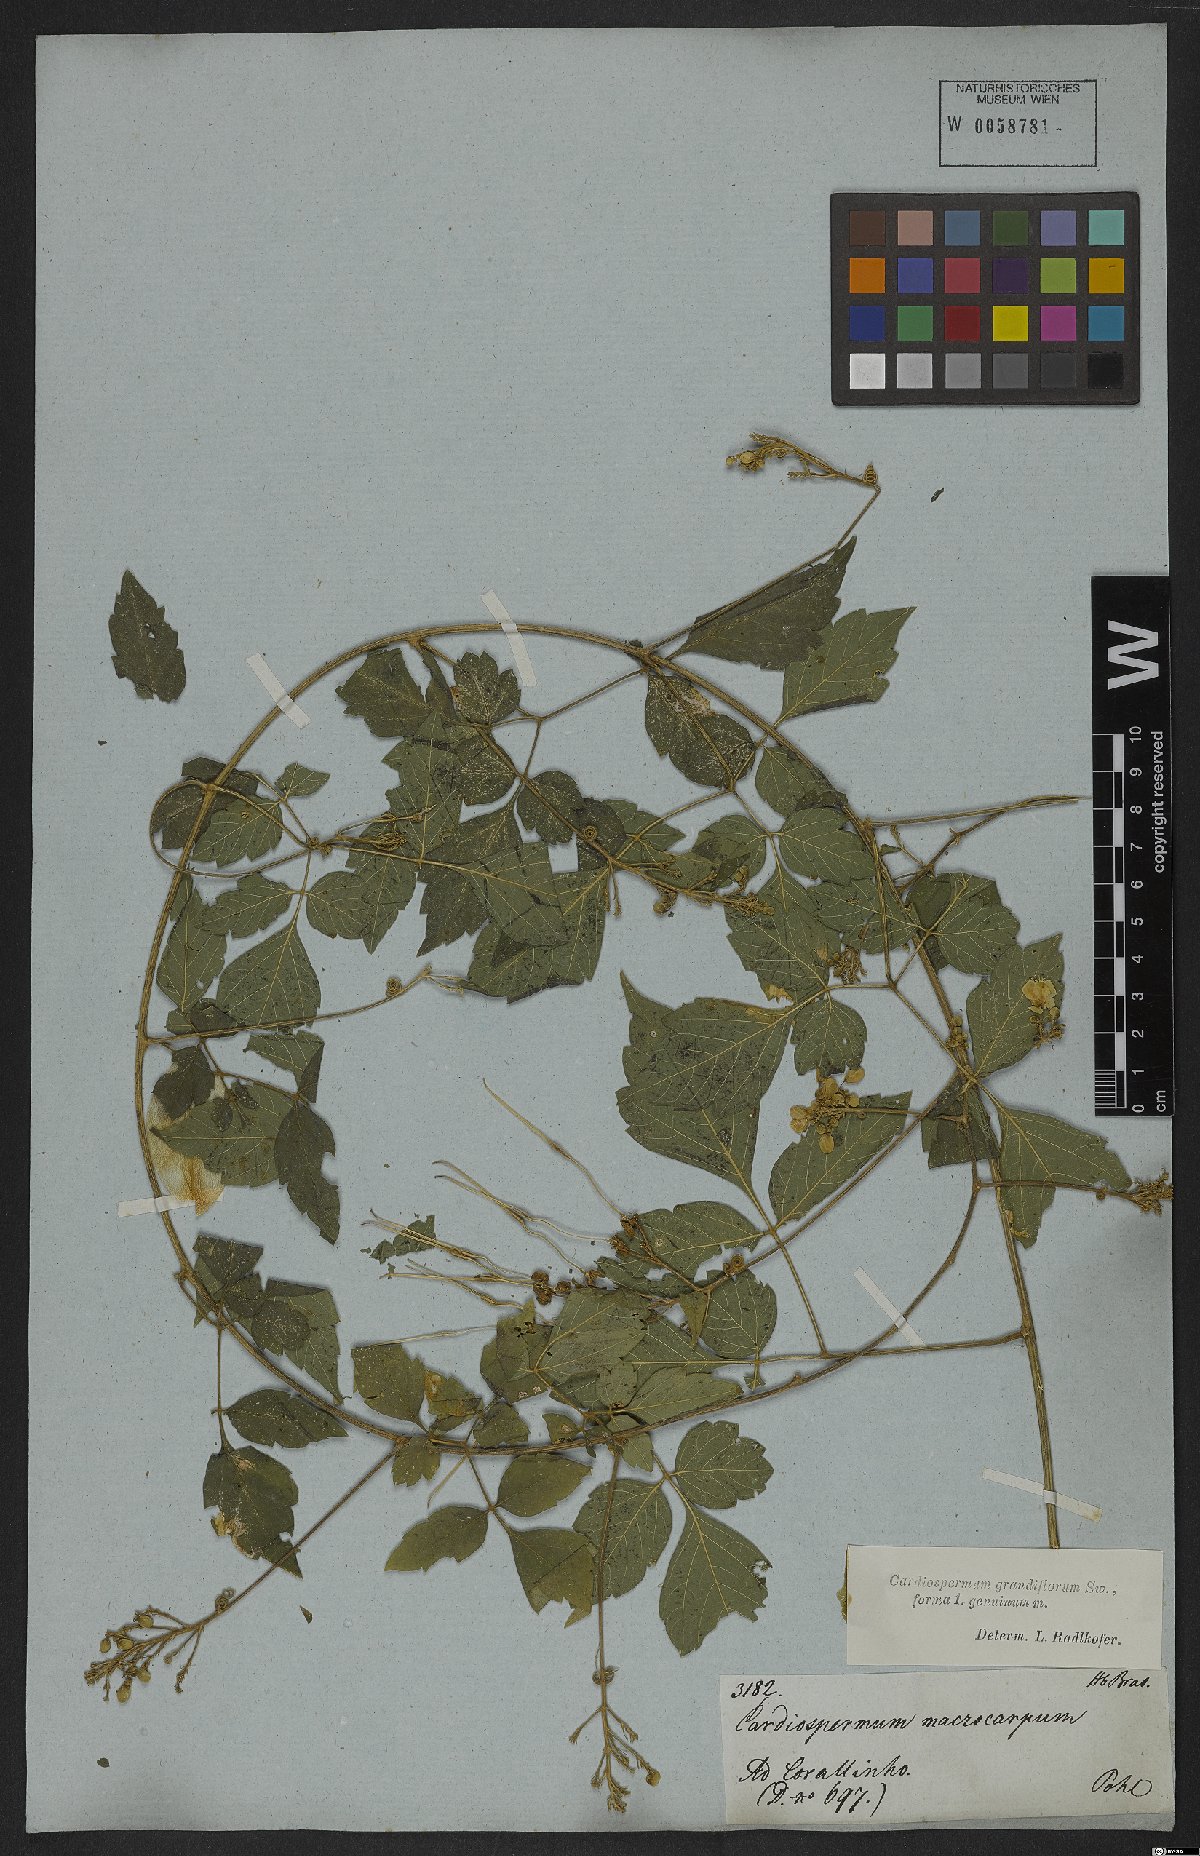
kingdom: Plantae
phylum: Tracheophyta
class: Magnoliopsida
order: Sapindales
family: Sapindaceae
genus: Cardiospermum
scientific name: Cardiospermum grandiflorum
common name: Balloon vine
